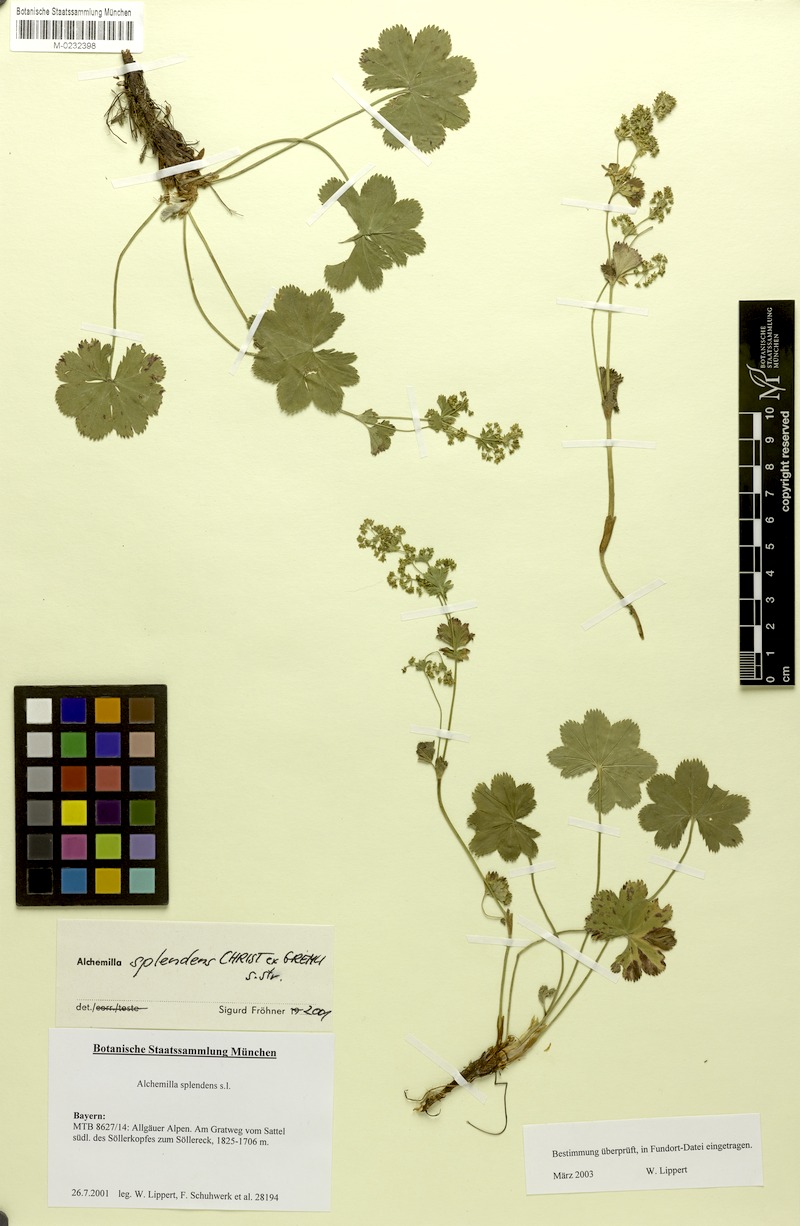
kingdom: Plantae
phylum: Tracheophyta
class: Magnoliopsida
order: Rosales
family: Rosaceae
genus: Alchemilla
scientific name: Alchemilla splendens
